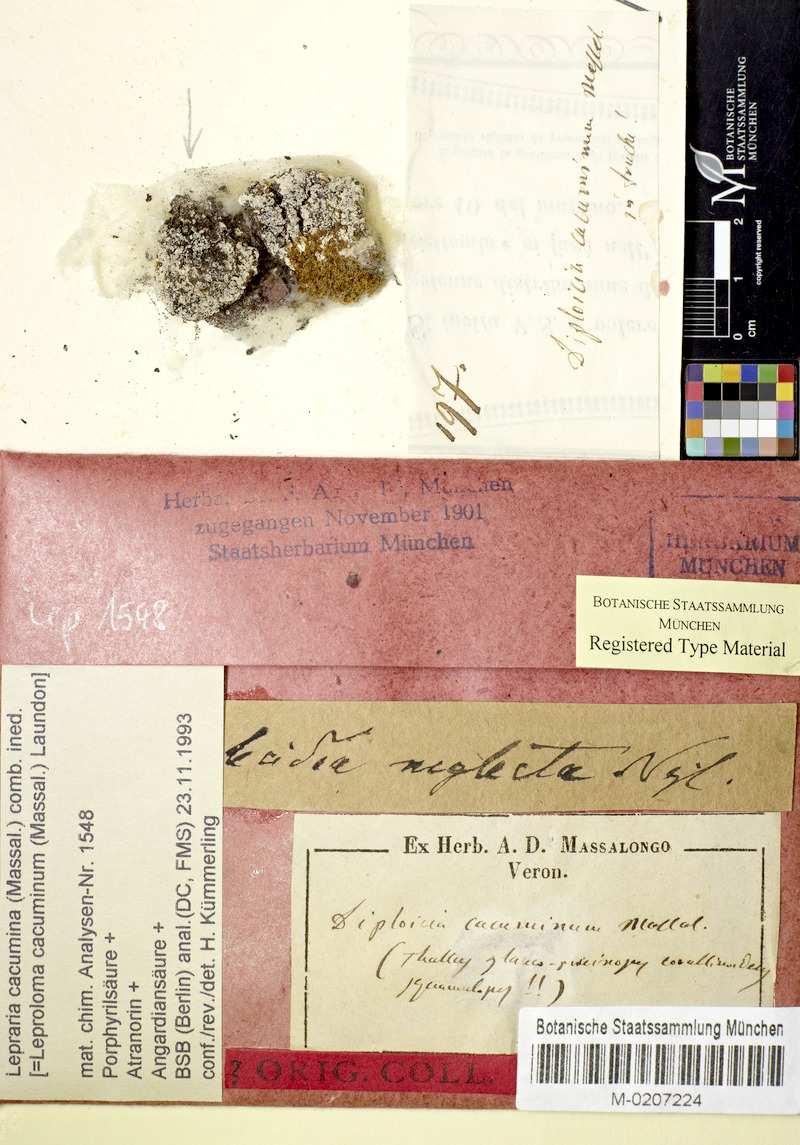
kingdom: Fungi
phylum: Ascomycota
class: Lecanoromycetes
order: Lecanorales
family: Stereocaulaceae
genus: Lepraria
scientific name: Lepraria cacuminum
